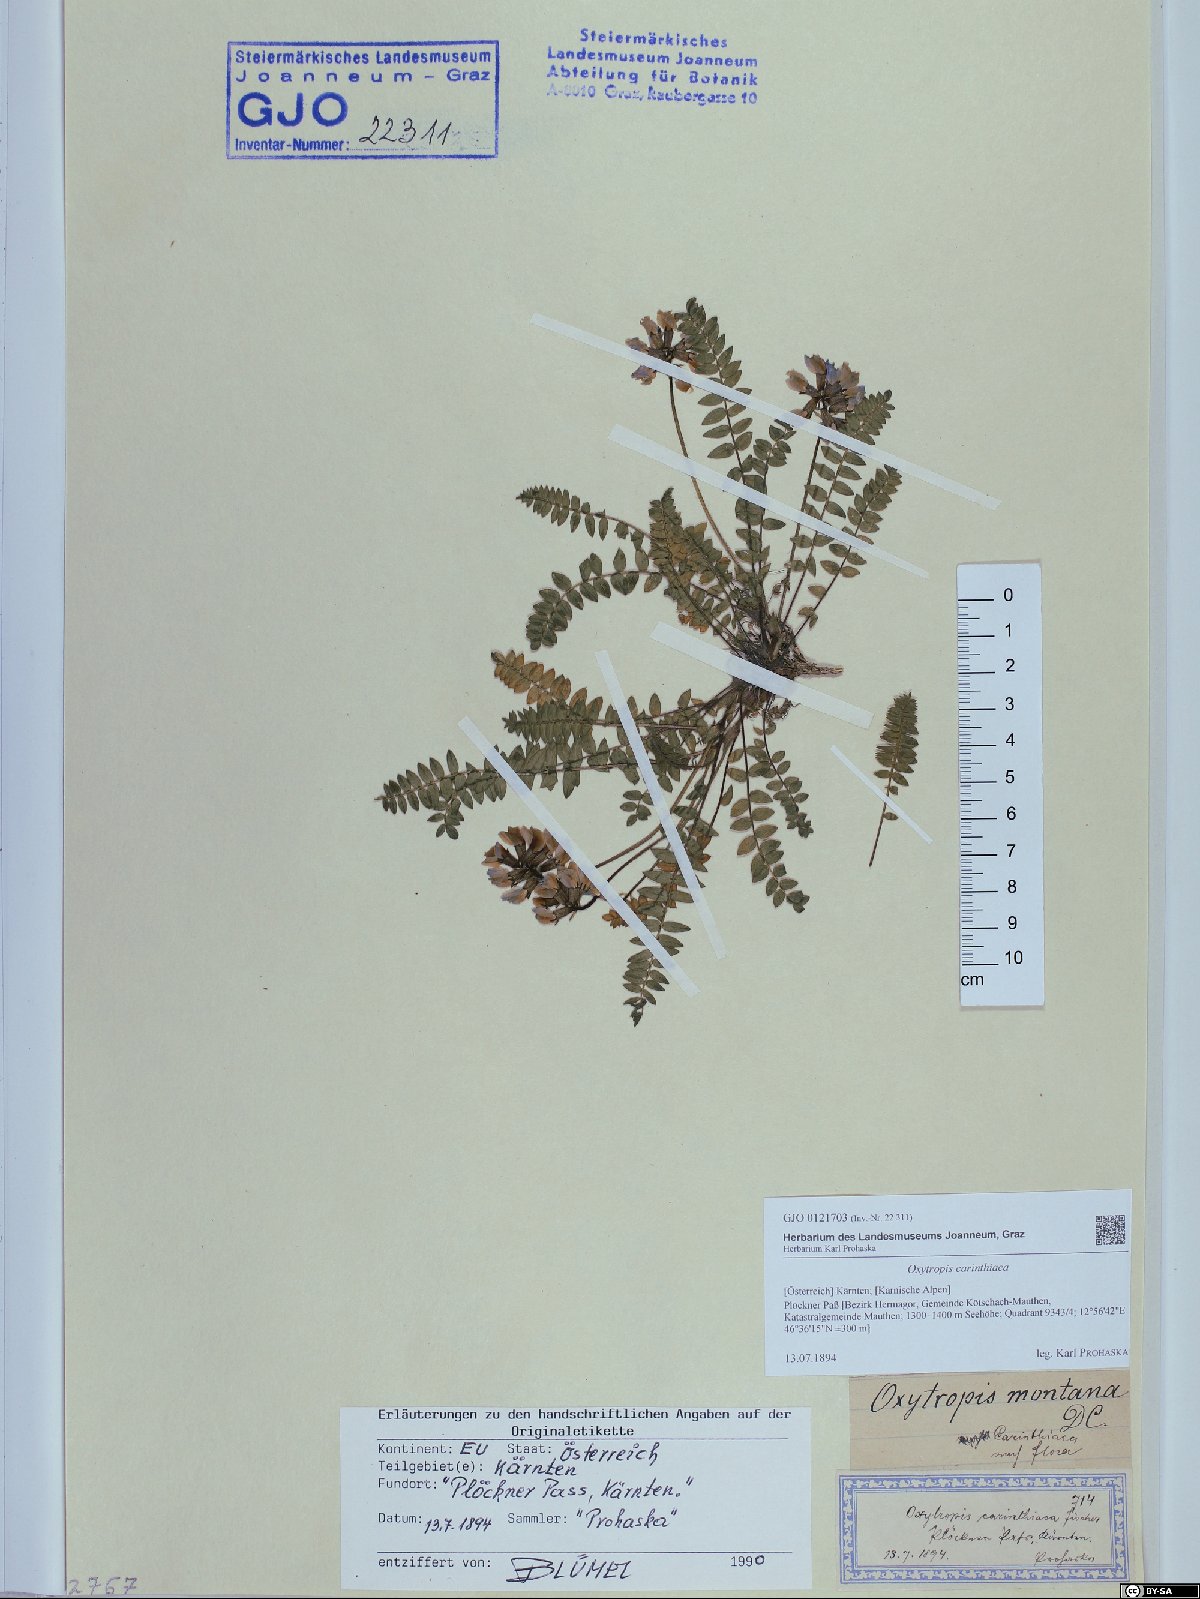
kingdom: Plantae
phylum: Tracheophyta
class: Magnoliopsida
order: Fabales
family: Fabaceae
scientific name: Fabaceae
